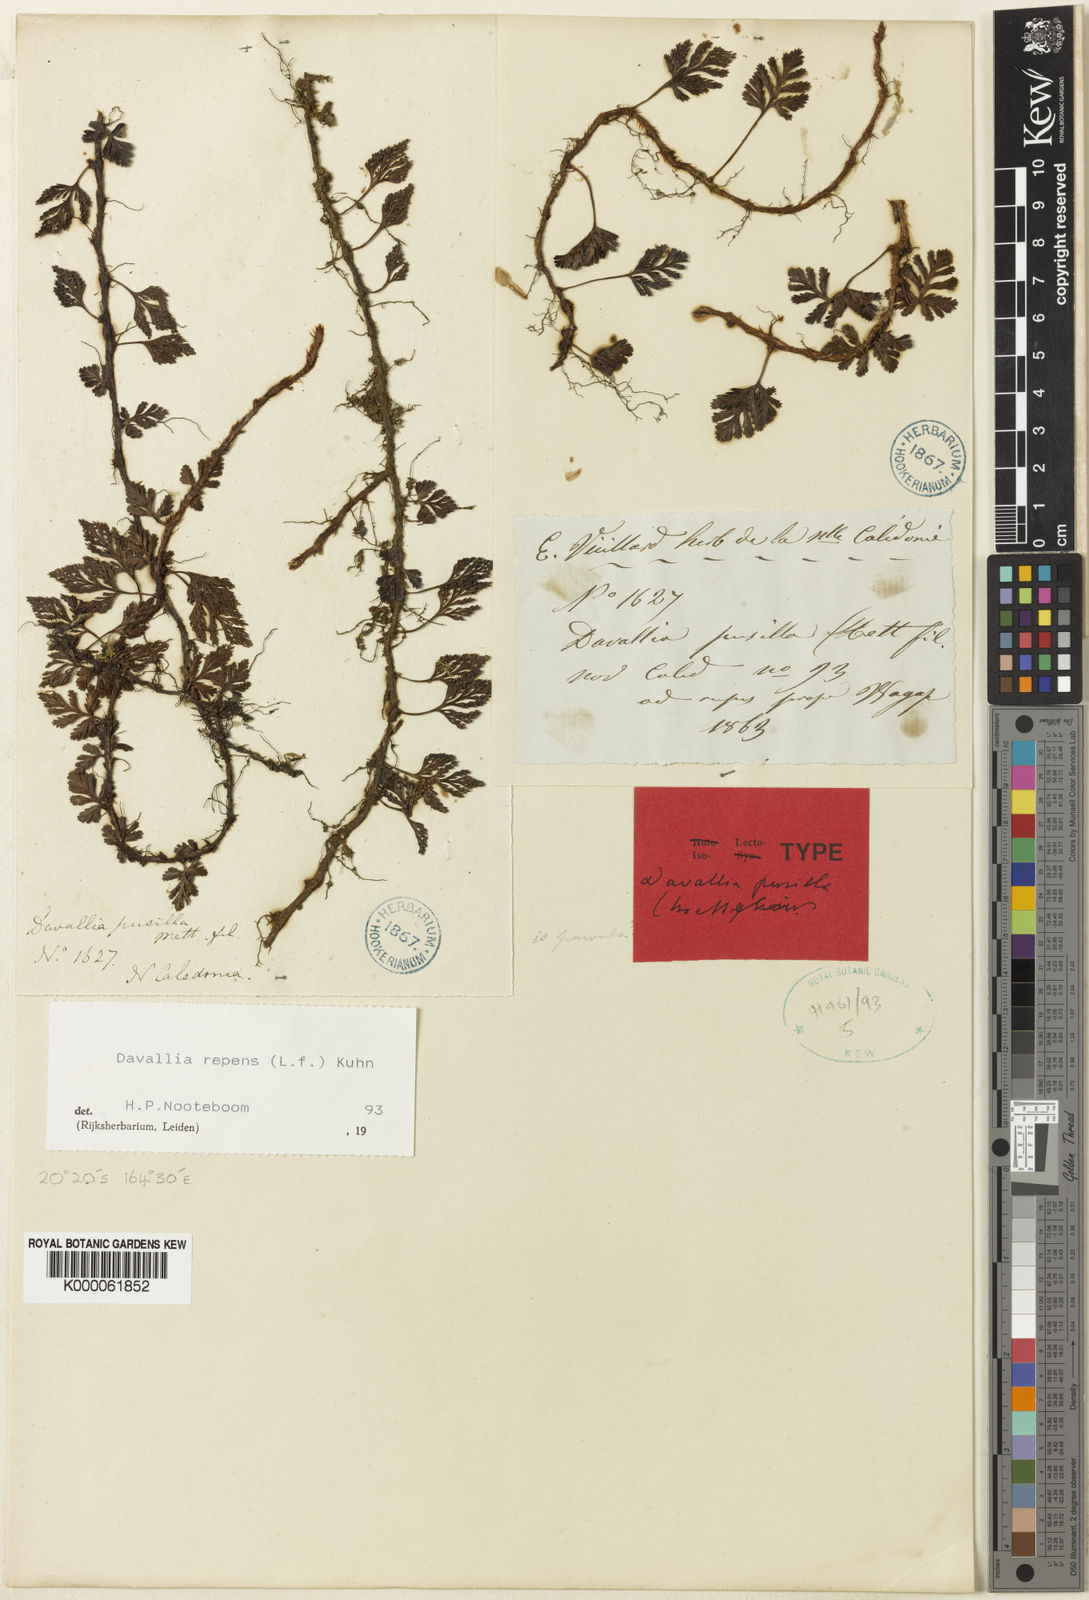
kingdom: Plantae
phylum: Tracheophyta
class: Polypodiopsida
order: Polypodiales
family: Davalliaceae
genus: Davallia
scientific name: Davallia pusilla
